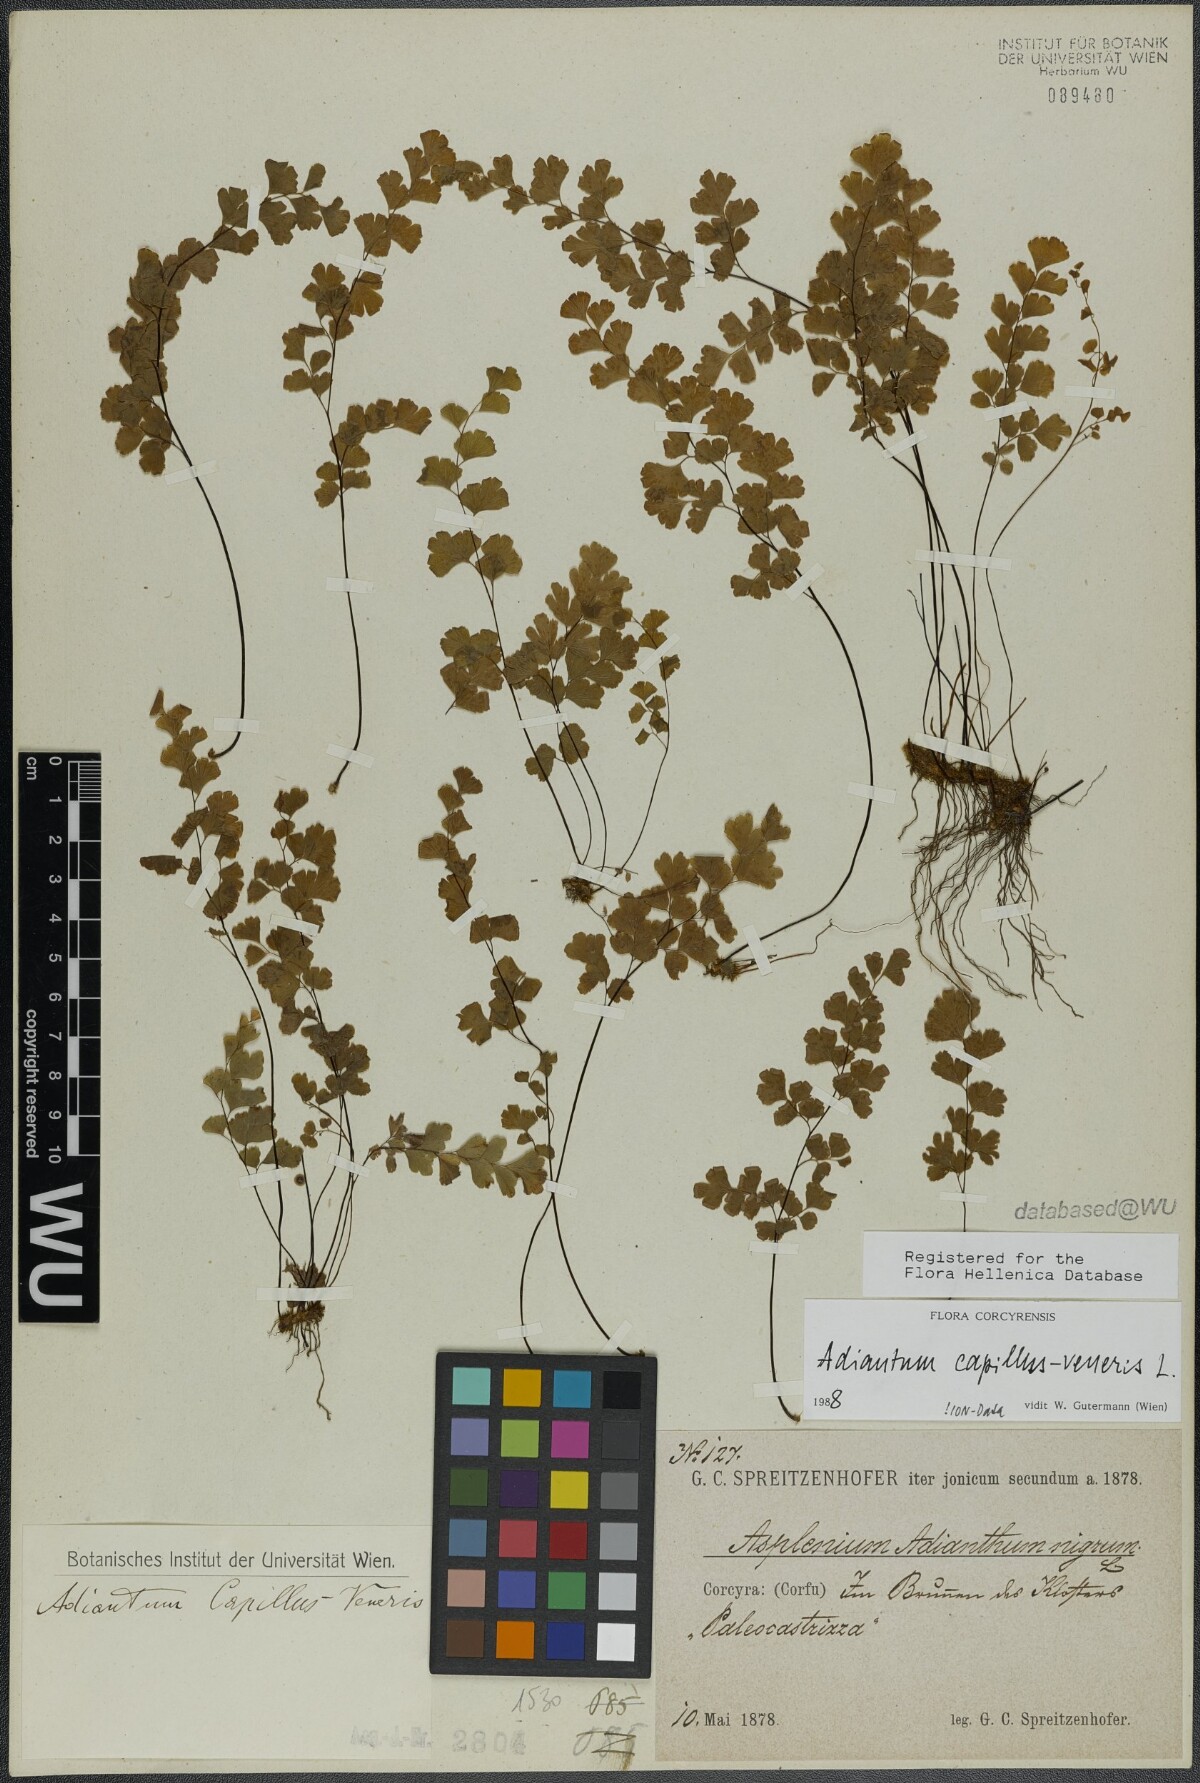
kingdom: Plantae
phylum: Tracheophyta
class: Polypodiopsida
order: Polypodiales
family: Pteridaceae
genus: Adiantum
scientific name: Adiantum capillus-veneris
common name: Maidenhair fern
